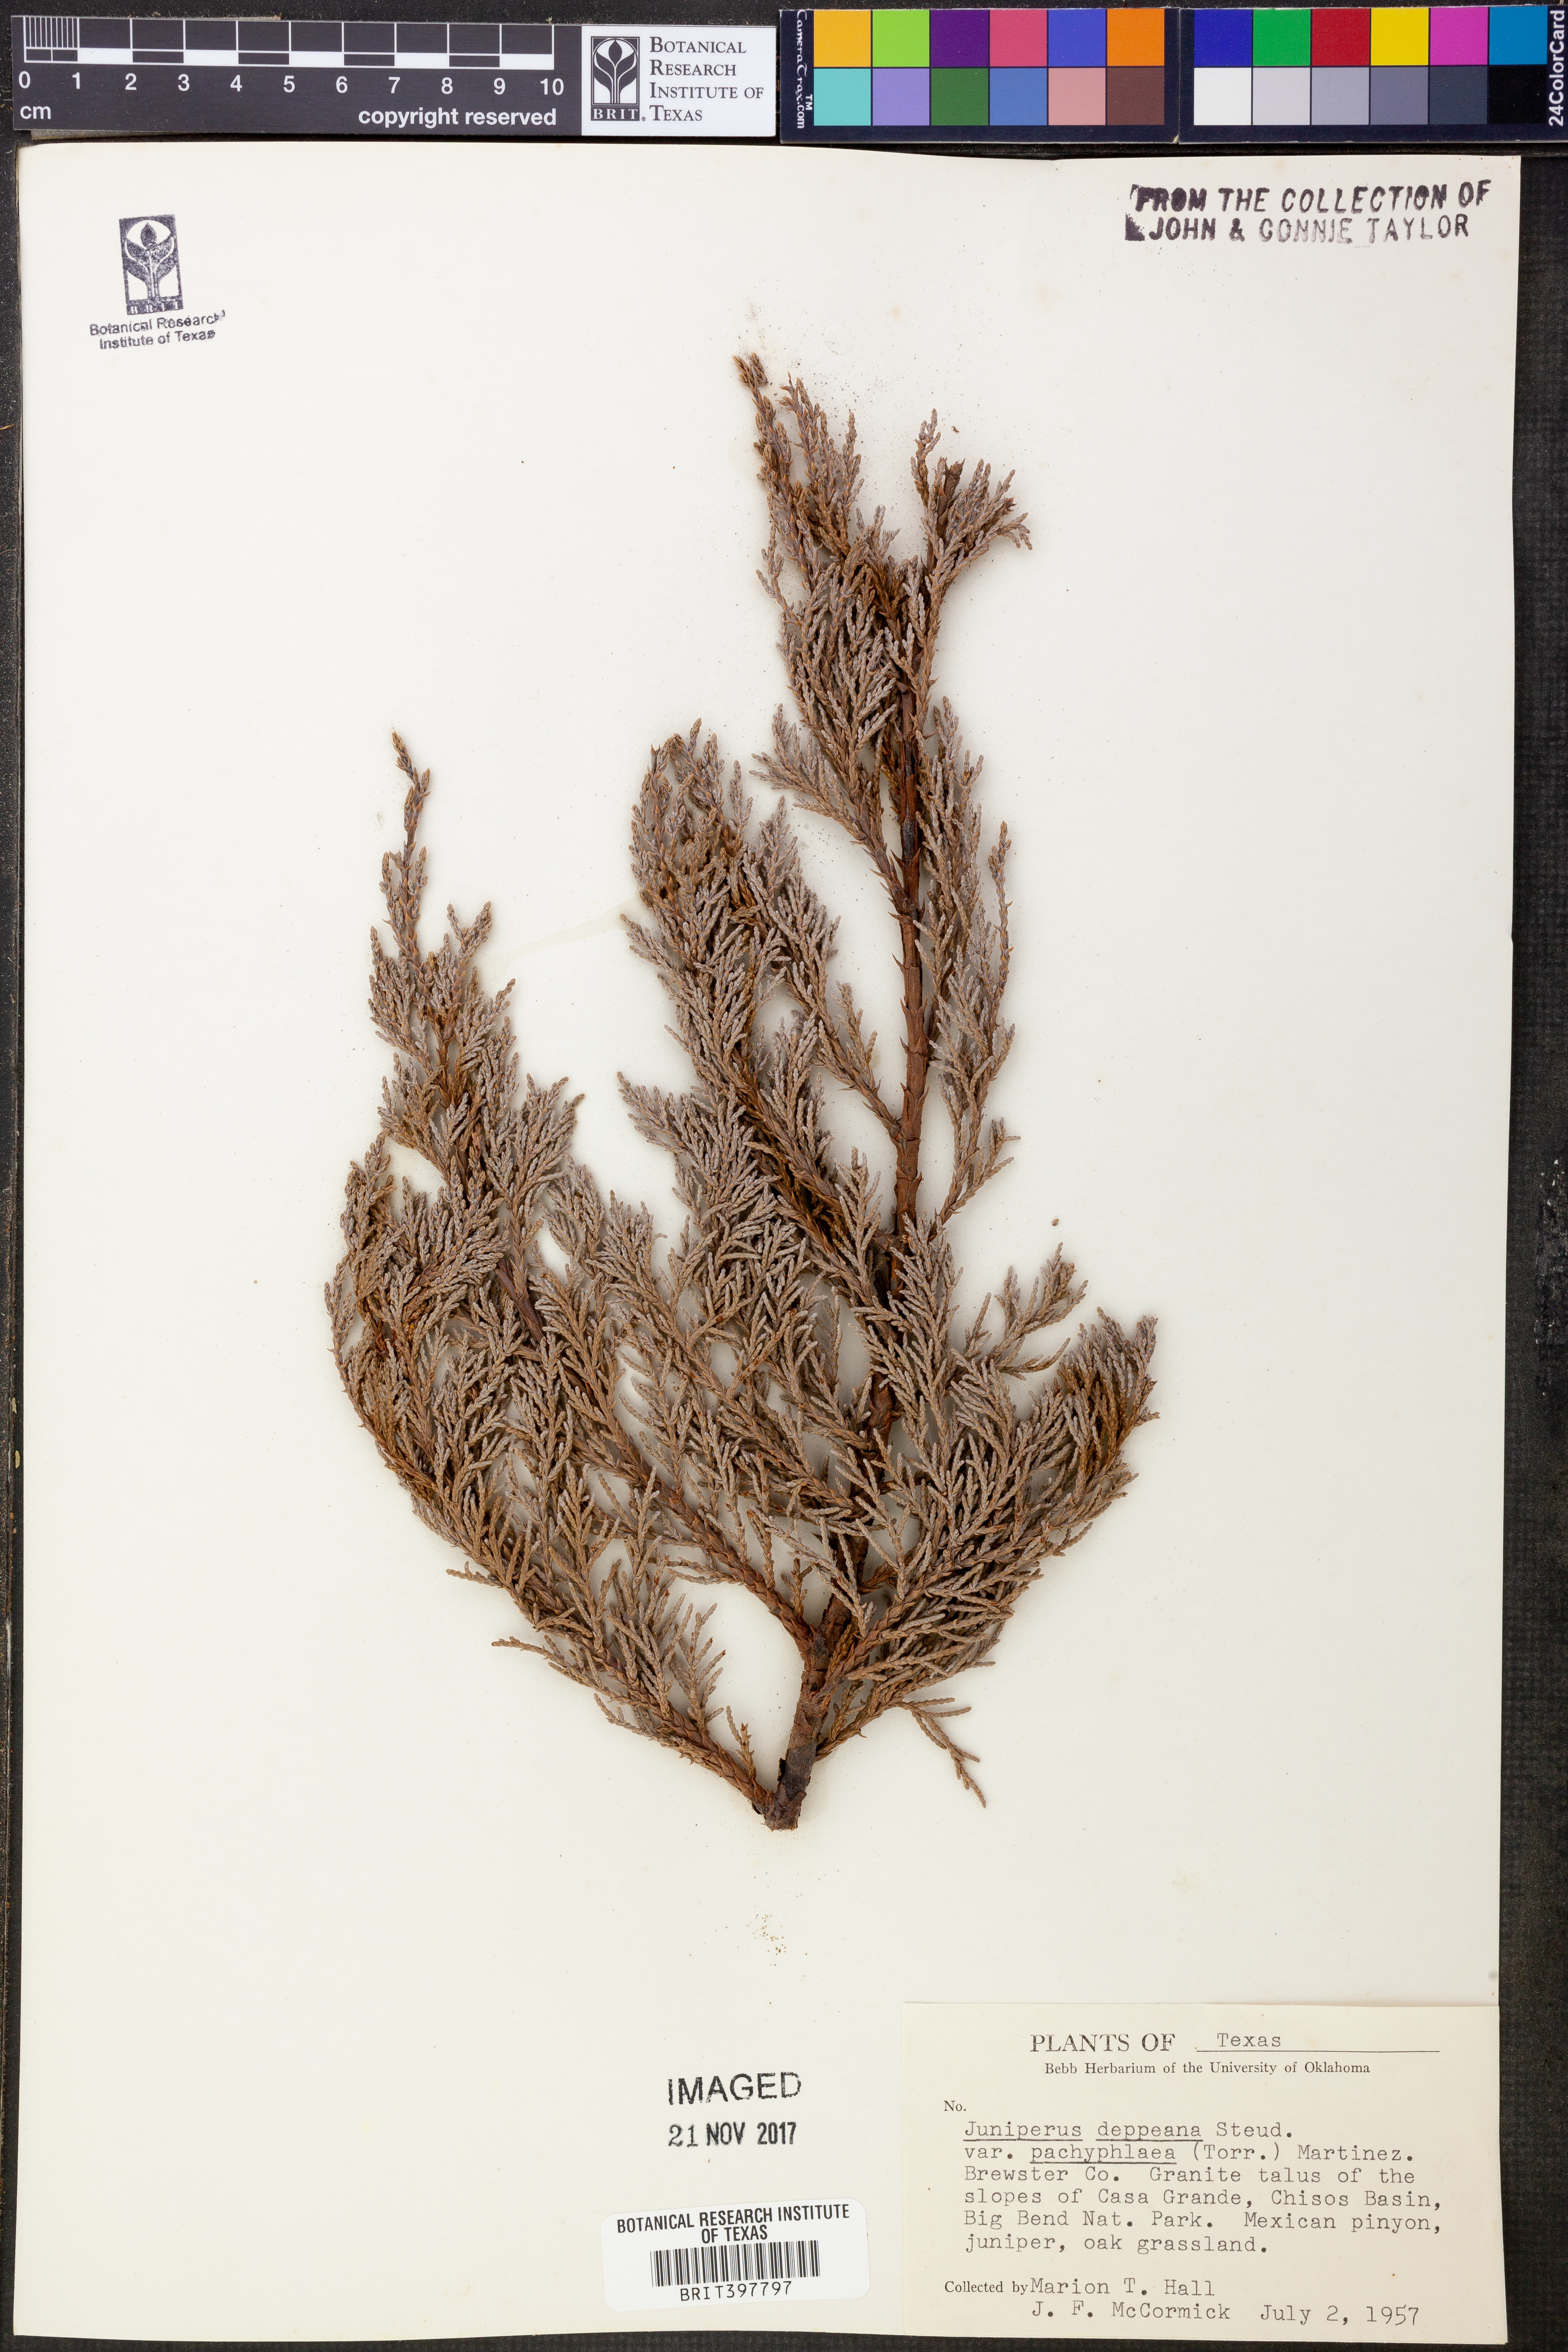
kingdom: Plantae
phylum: Tracheophyta
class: Pinopsida
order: Pinales
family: Cupressaceae
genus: Juniperus
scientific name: Juniperus deppeana
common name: Alligator juniper
